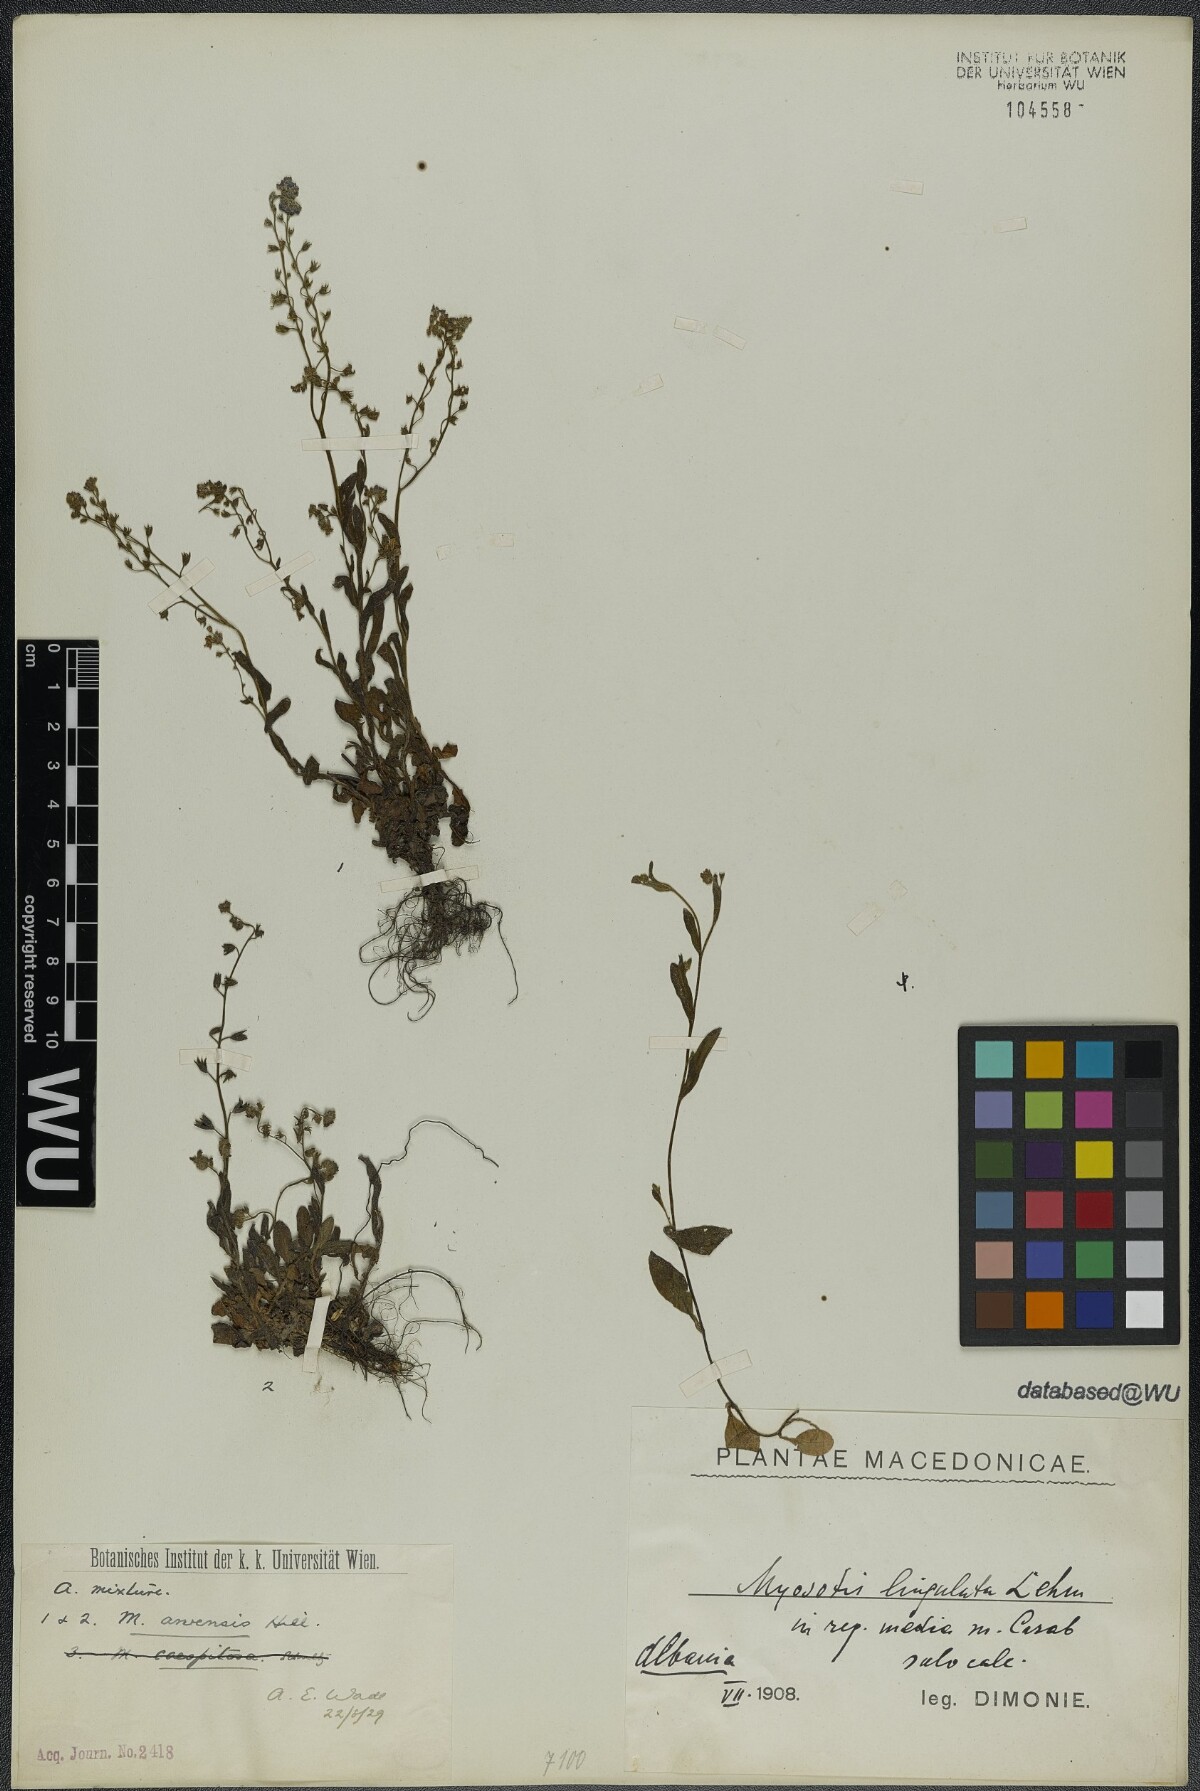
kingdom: Plantae
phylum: Tracheophyta
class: Magnoliopsida
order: Boraginales
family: Boraginaceae
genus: Myosotis
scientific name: Myosotis arvensis
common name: Field forget-me-not
